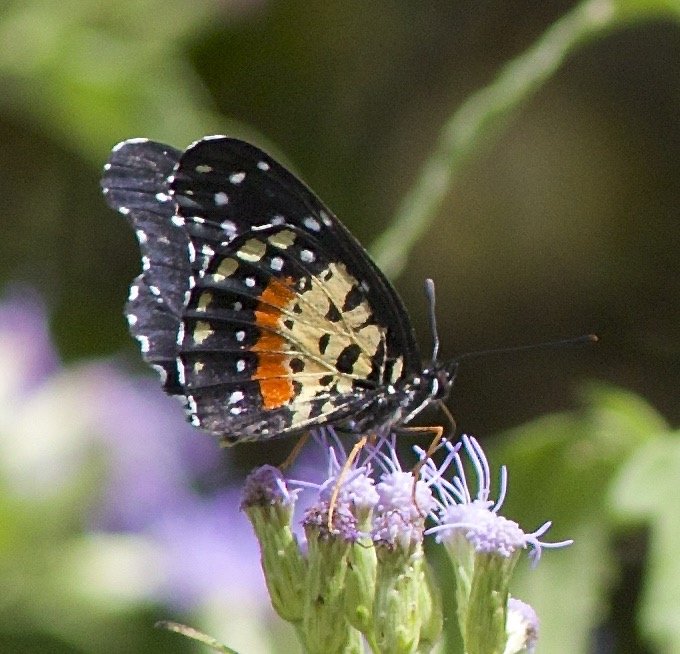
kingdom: Animalia
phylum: Arthropoda
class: Insecta
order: Lepidoptera
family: Nymphalidae
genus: Chlosyne
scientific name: Chlosyne janais
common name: Crimson Patch
